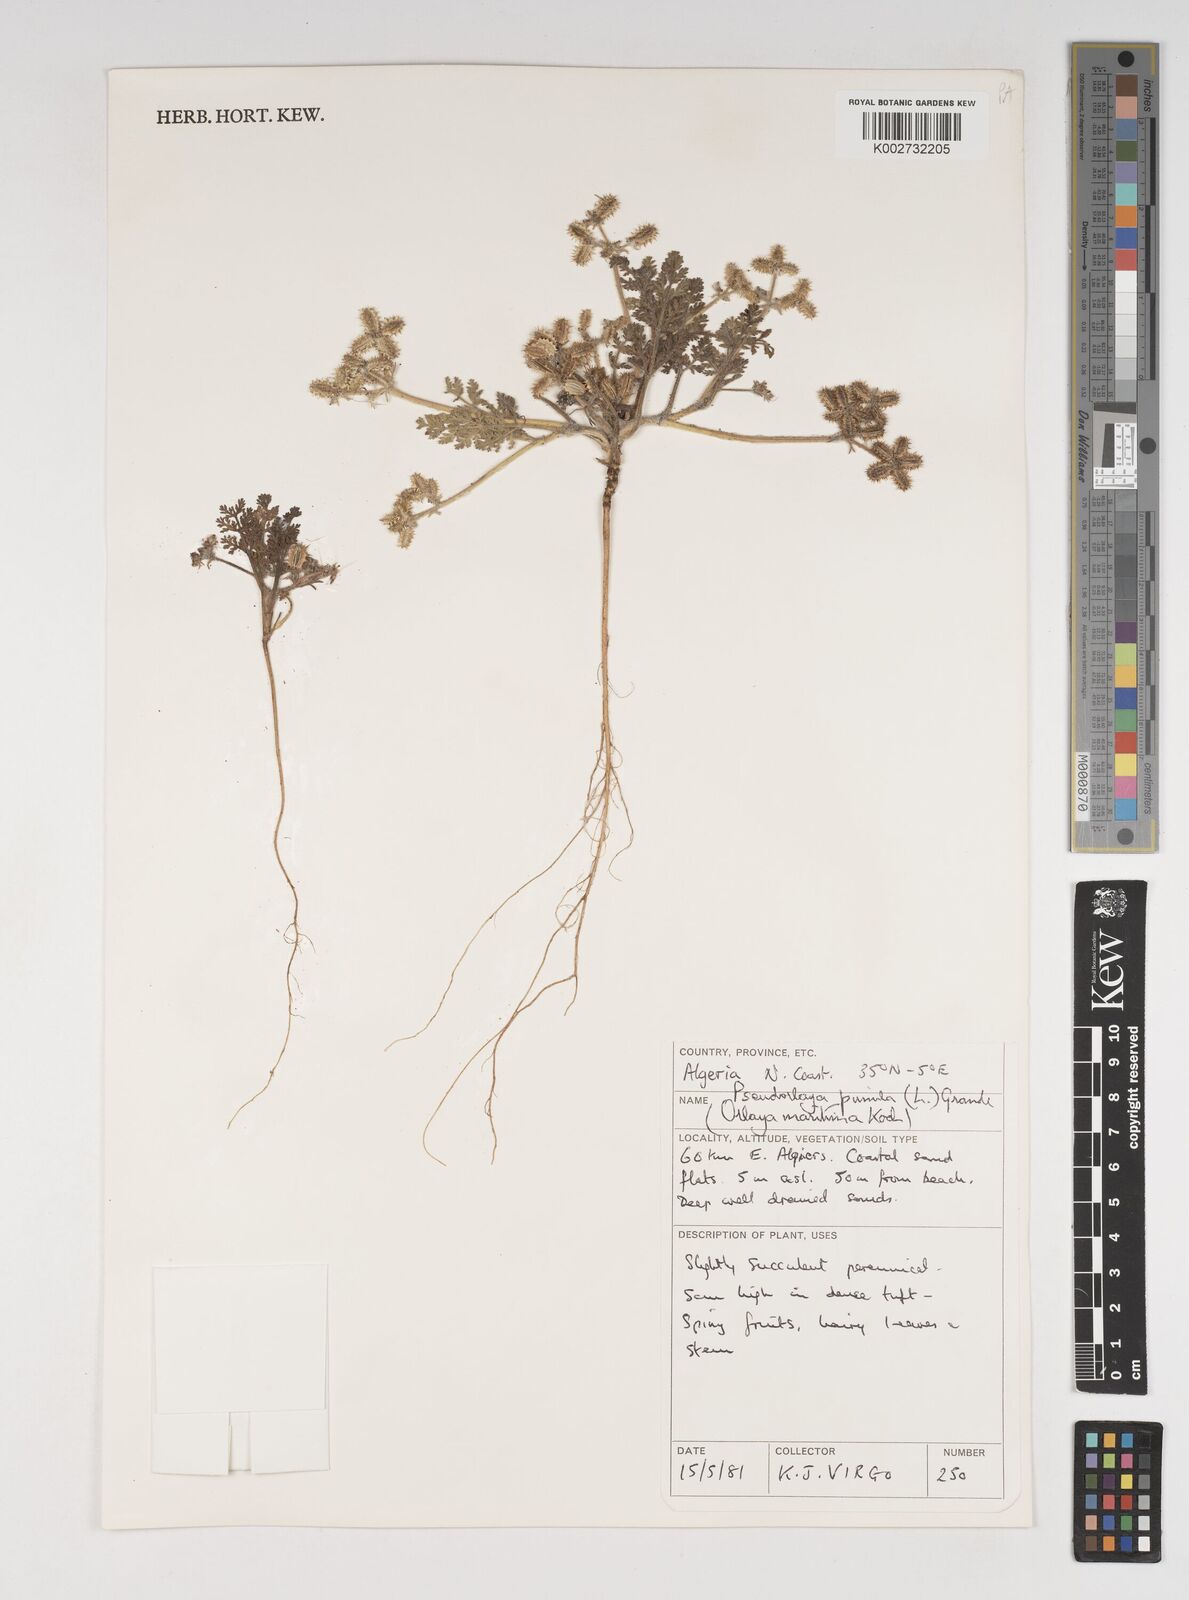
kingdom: Plantae
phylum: Tracheophyta
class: Magnoliopsida
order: Apiales
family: Apiaceae
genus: Daucus
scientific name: Daucus pumilus
